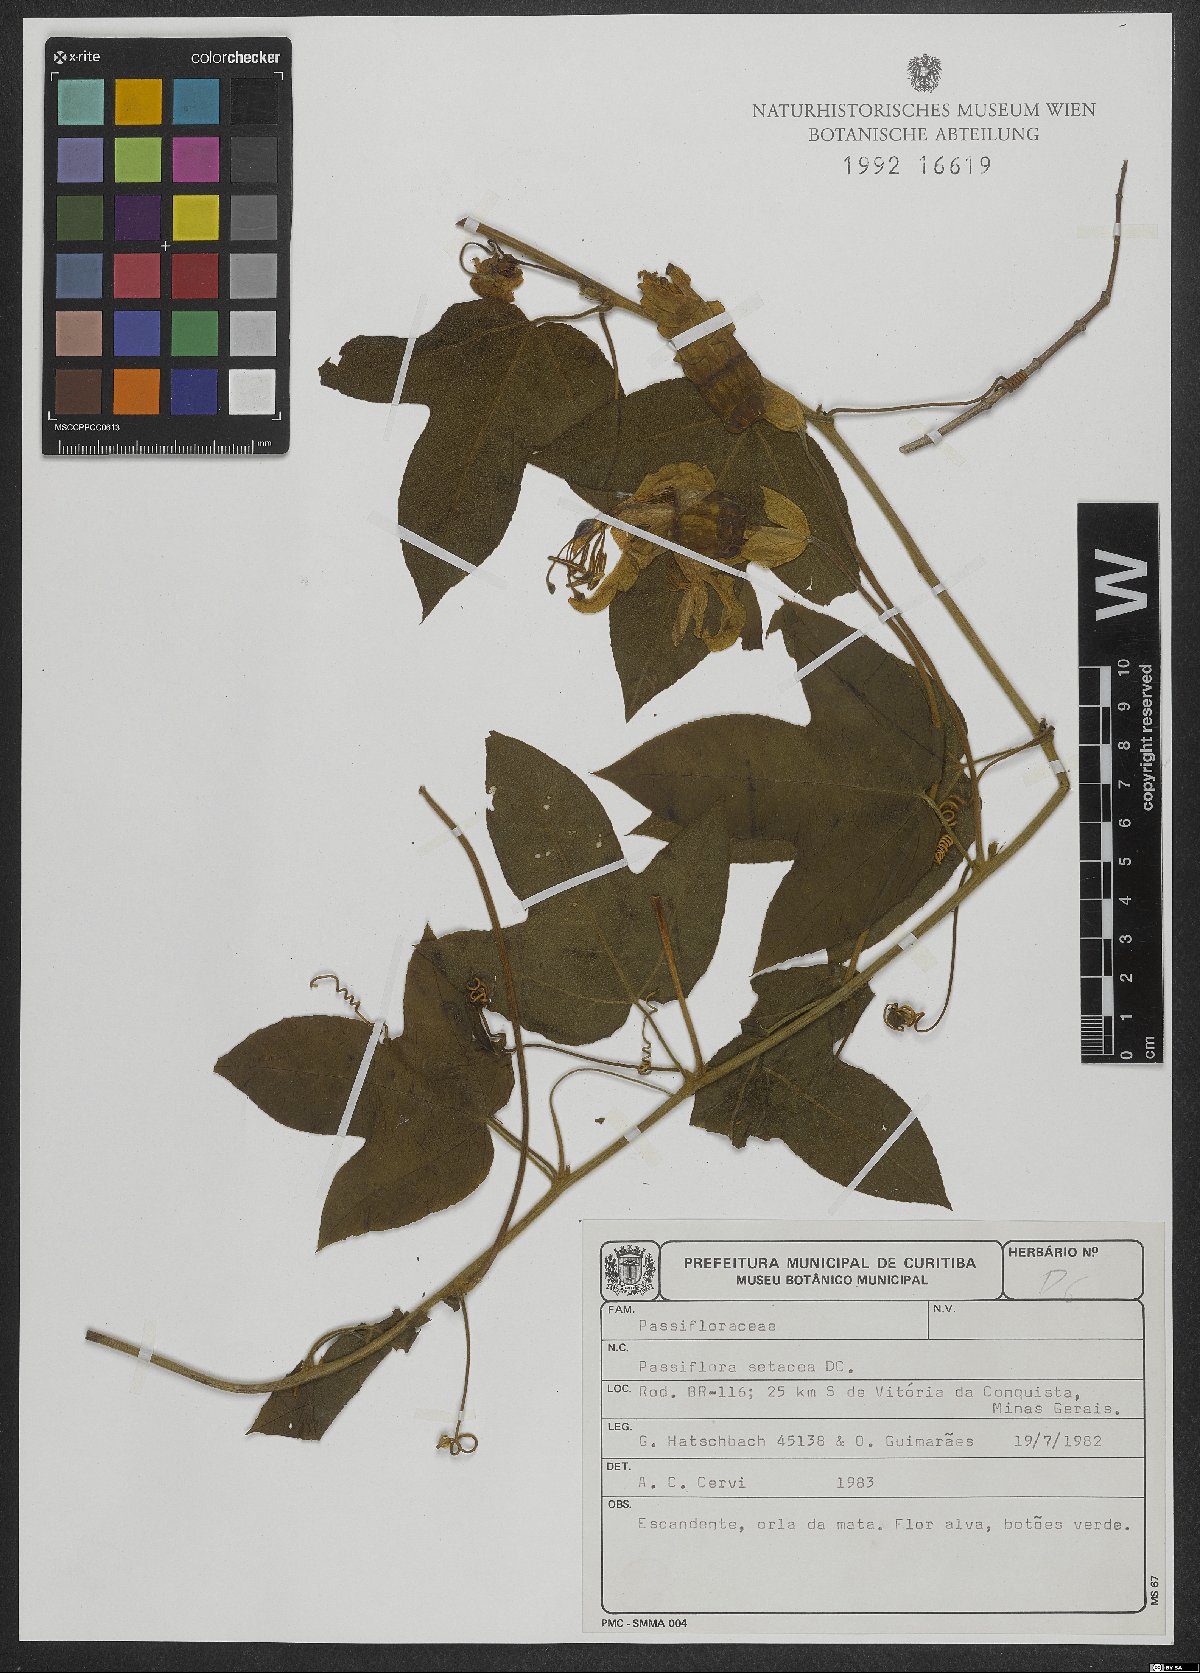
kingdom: Plantae
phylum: Tracheophyta
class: Magnoliopsida
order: Malpighiales
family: Passifloraceae
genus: Passiflora
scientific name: Passiflora setacea
